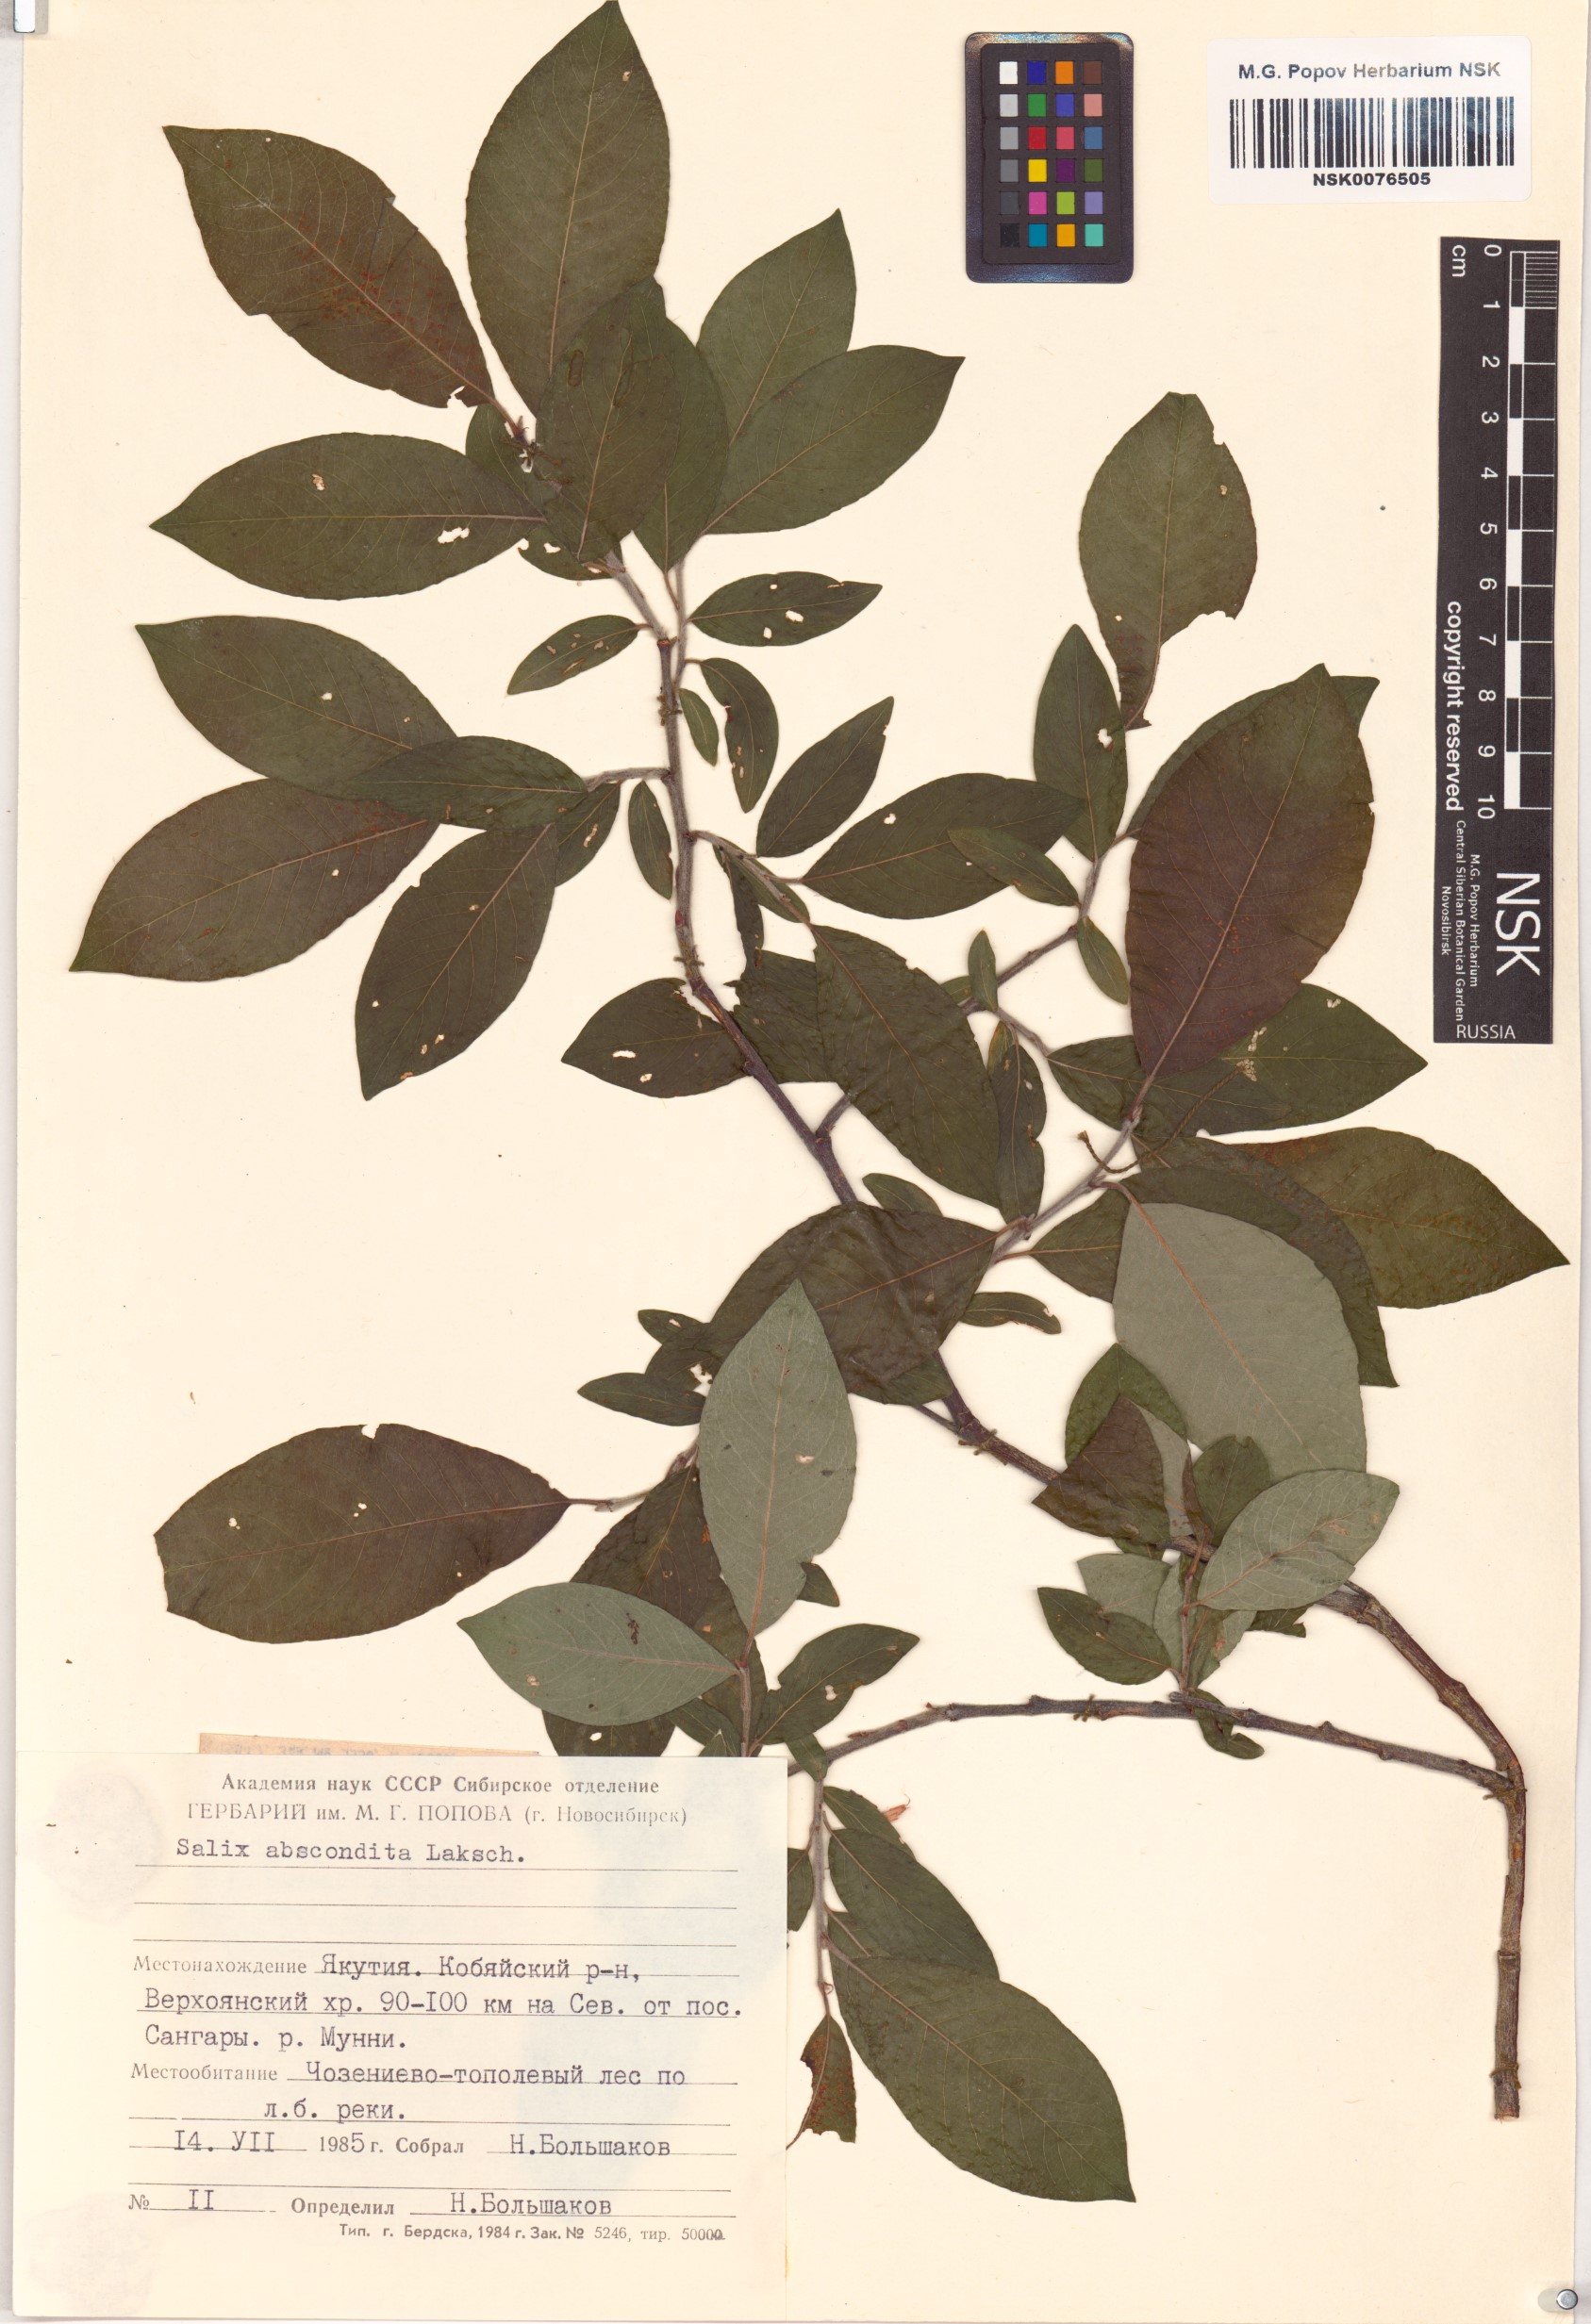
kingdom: Plantae
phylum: Tracheophyta
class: Magnoliopsida
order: Malpighiales
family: Salicaceae
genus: Salix
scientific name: Salix abscondita
